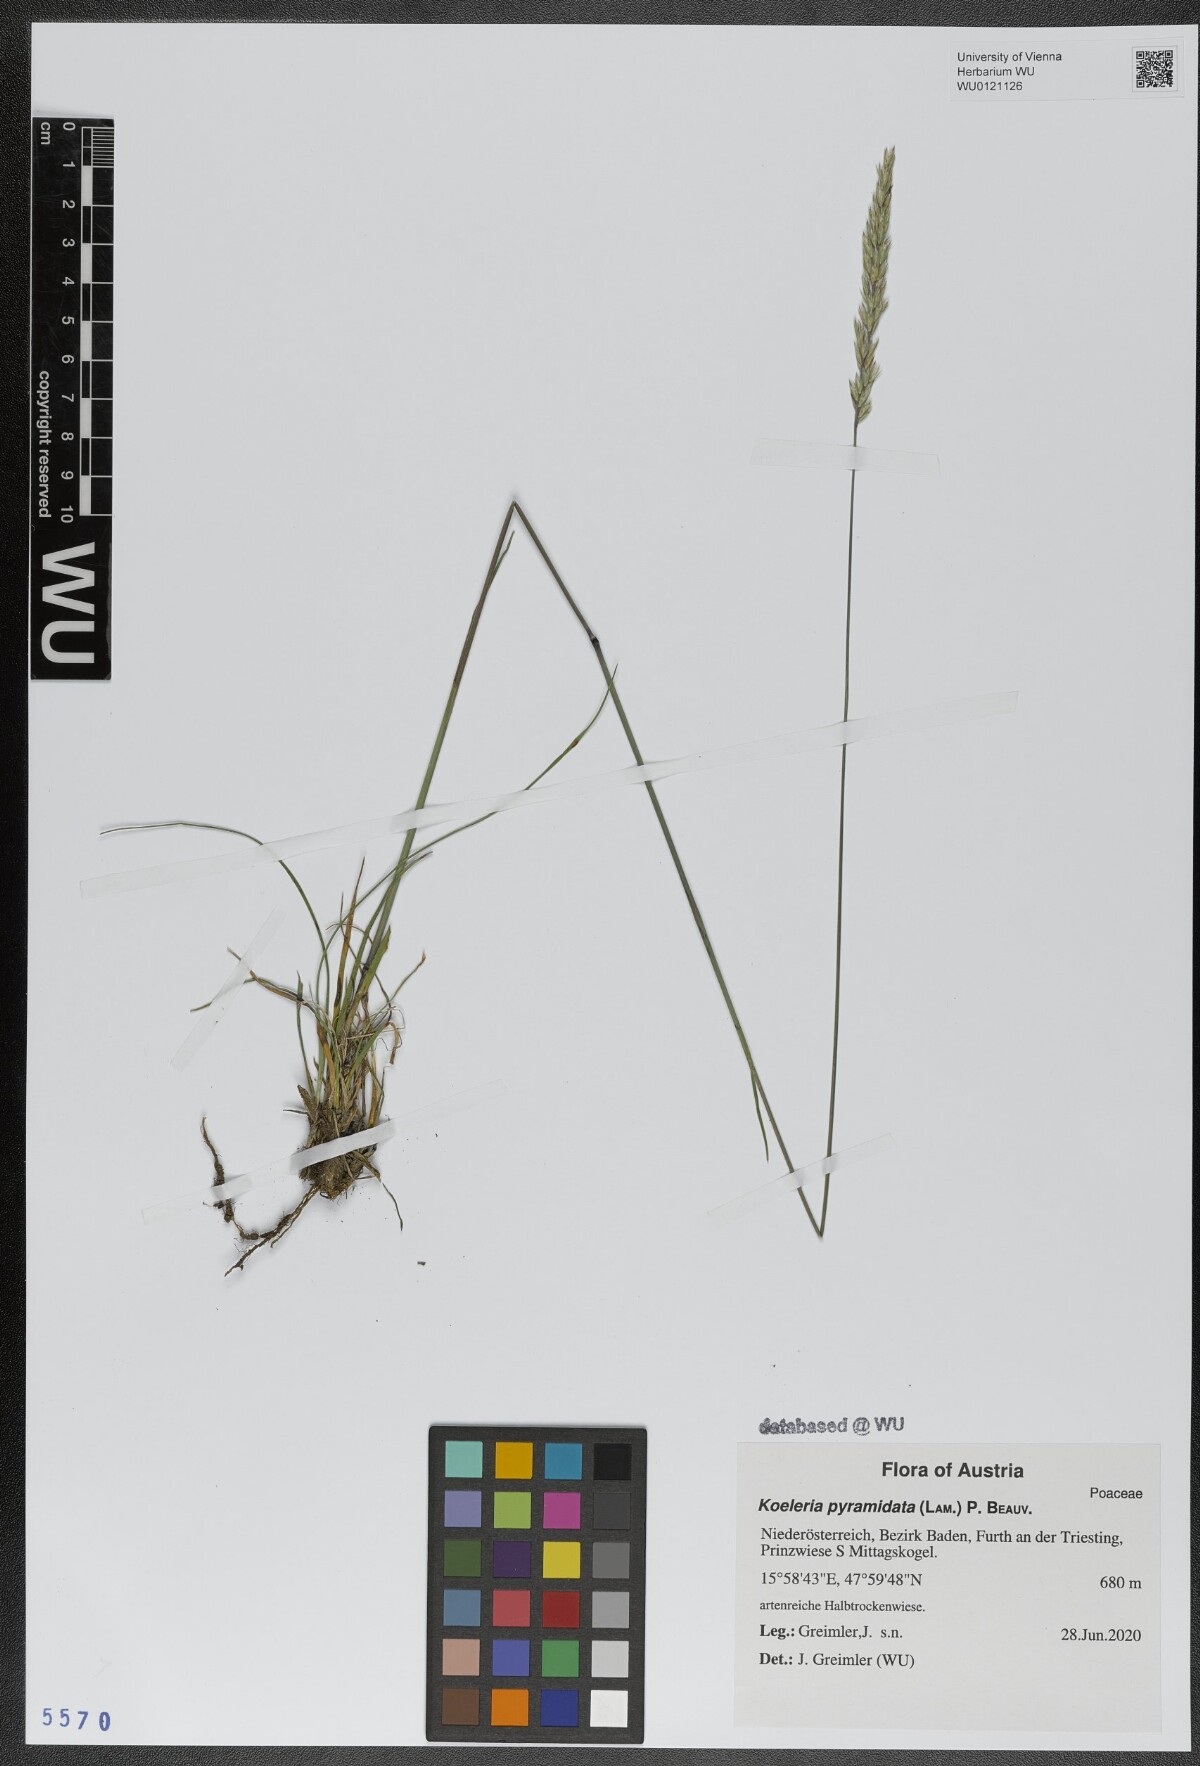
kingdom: Plantae
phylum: Tracheophyta
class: Liliopsida
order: Poales
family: Poaceae
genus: Koeleria
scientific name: Koeleria pyramidata
